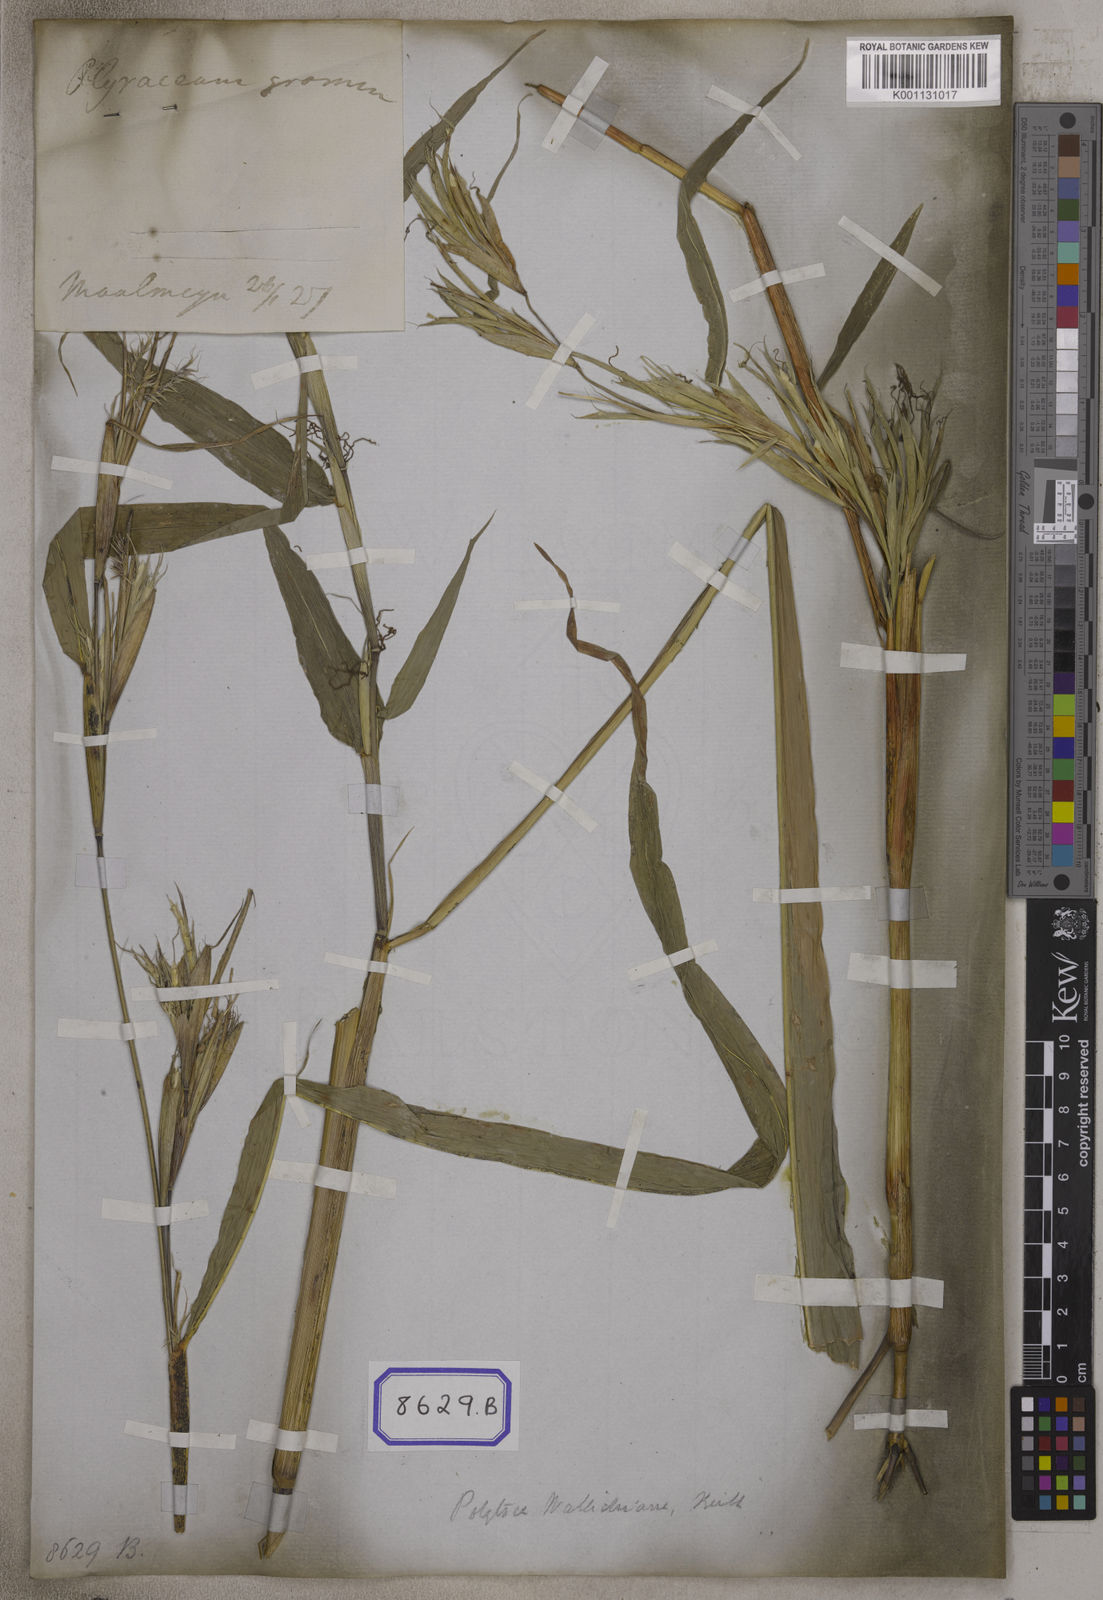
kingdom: Plantae
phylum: Tracheophyta
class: Liliopsida
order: Poales
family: Poaceae
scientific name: Poaceae
